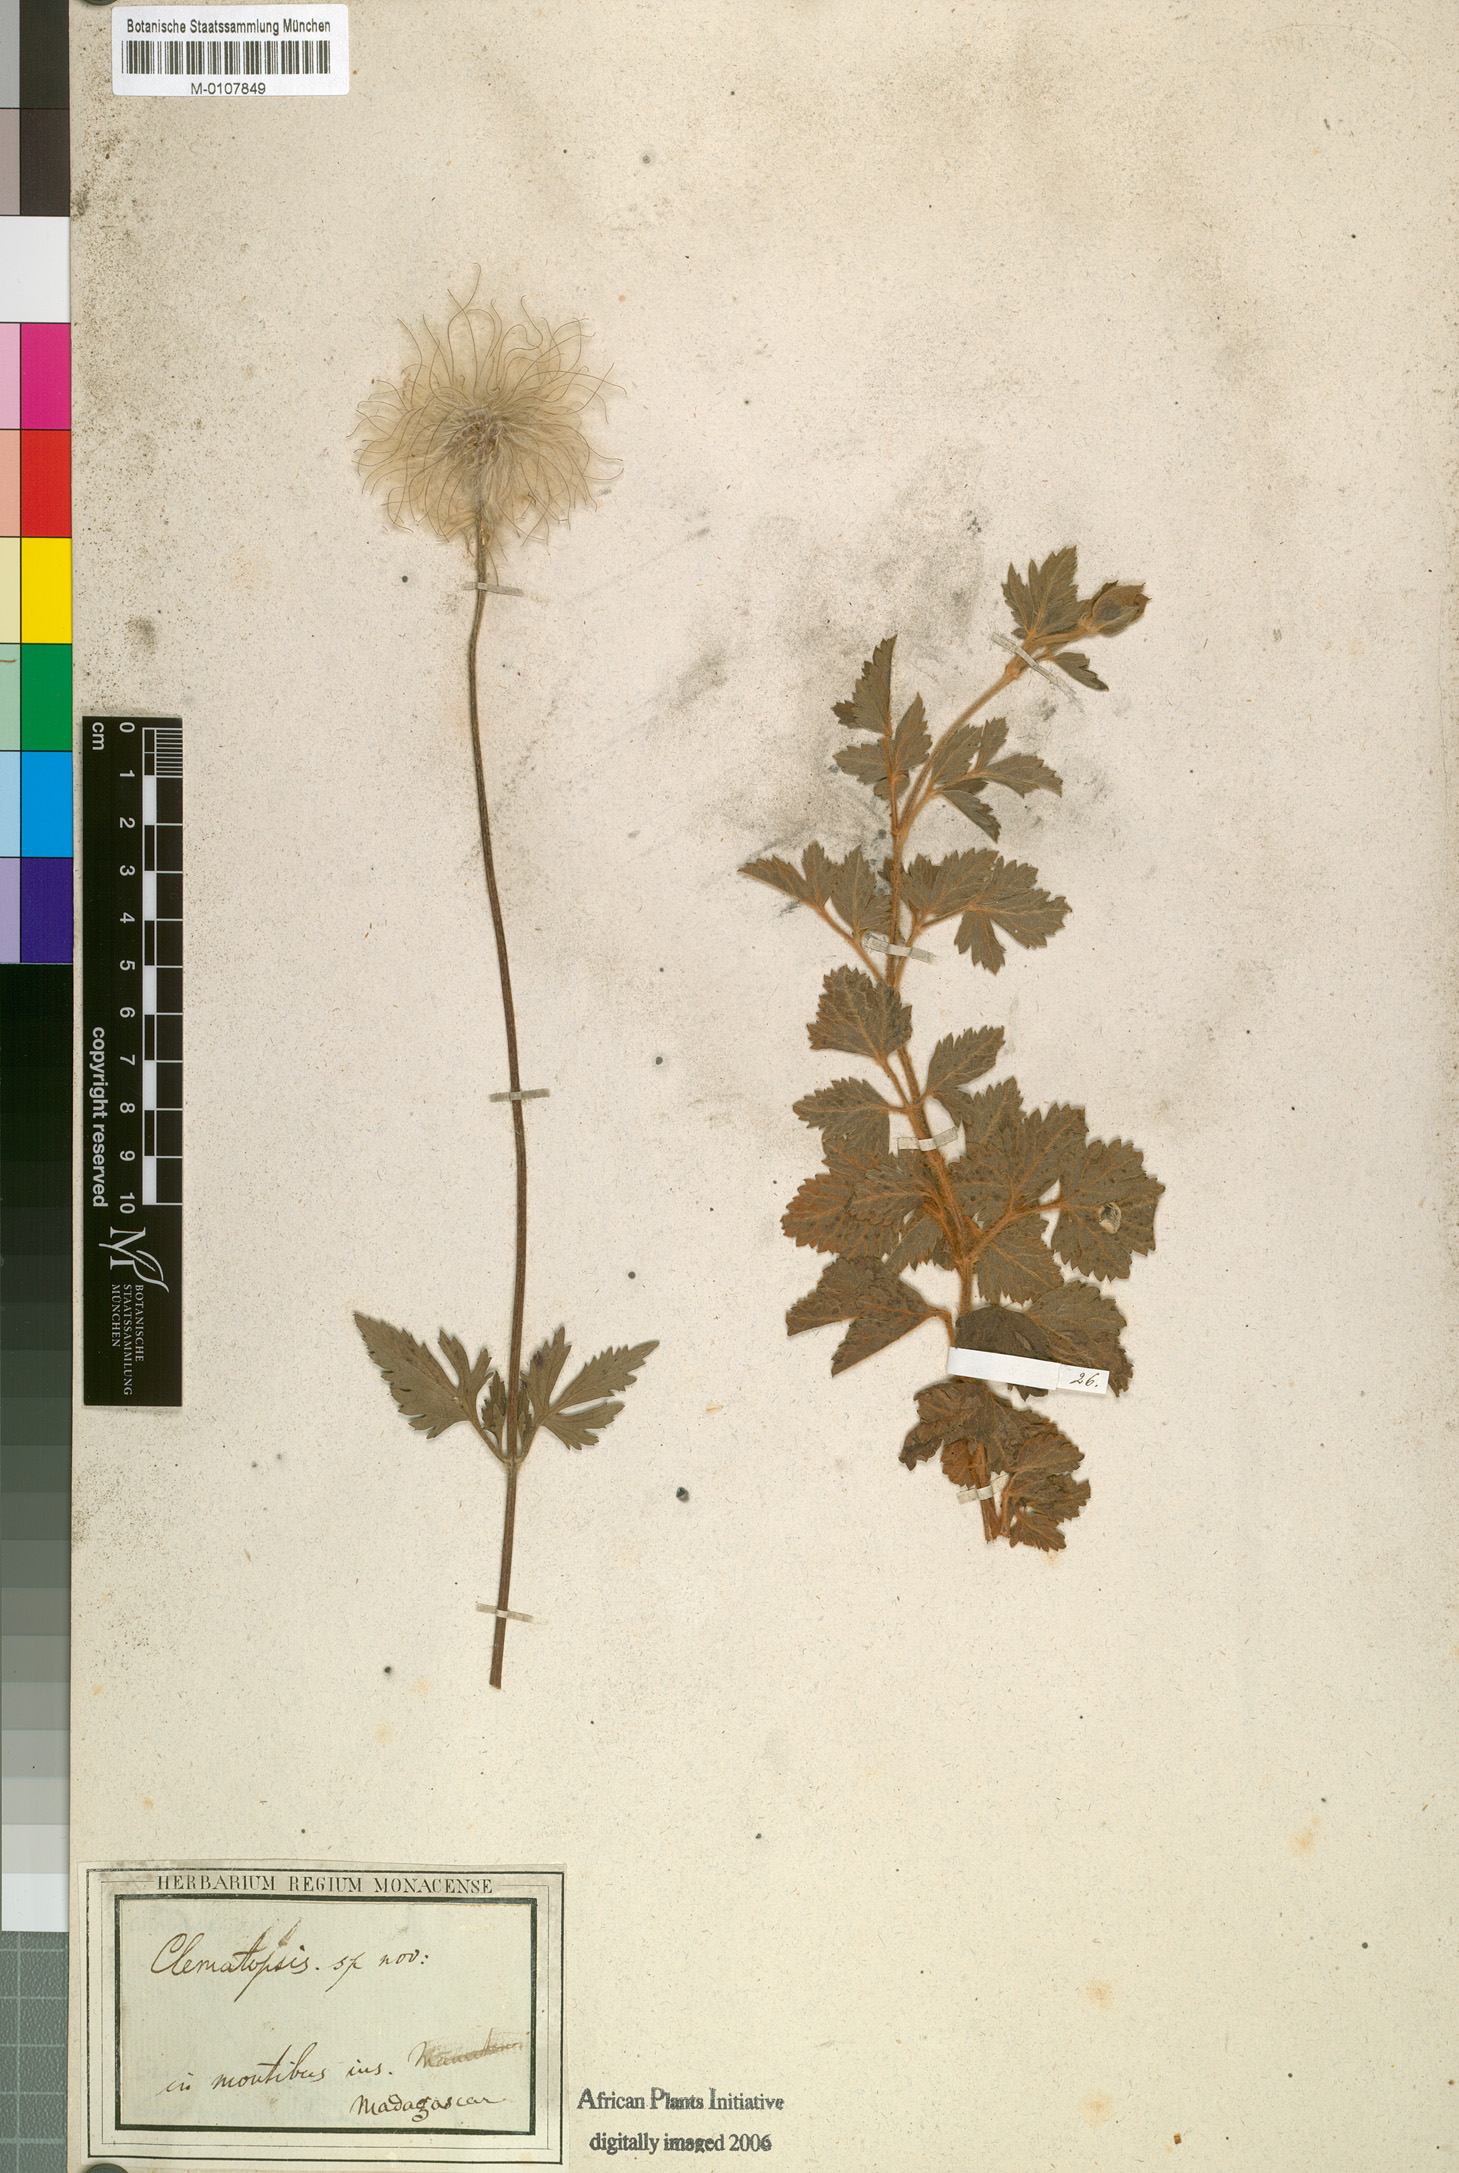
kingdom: Plantae
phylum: Tracheophyta
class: Magnoliopsida
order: Ranunculales
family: Ranunculaceae
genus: Clematis
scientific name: Clematis bojeri
